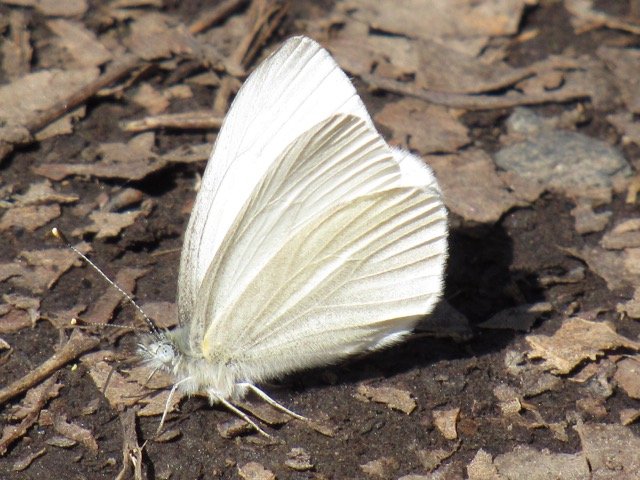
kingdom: Animalia
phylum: Arthropoda
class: Insecta
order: Lepidoptera
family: Pieridae
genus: Pieris
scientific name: Pieris virginiensis
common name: West Virginia White
